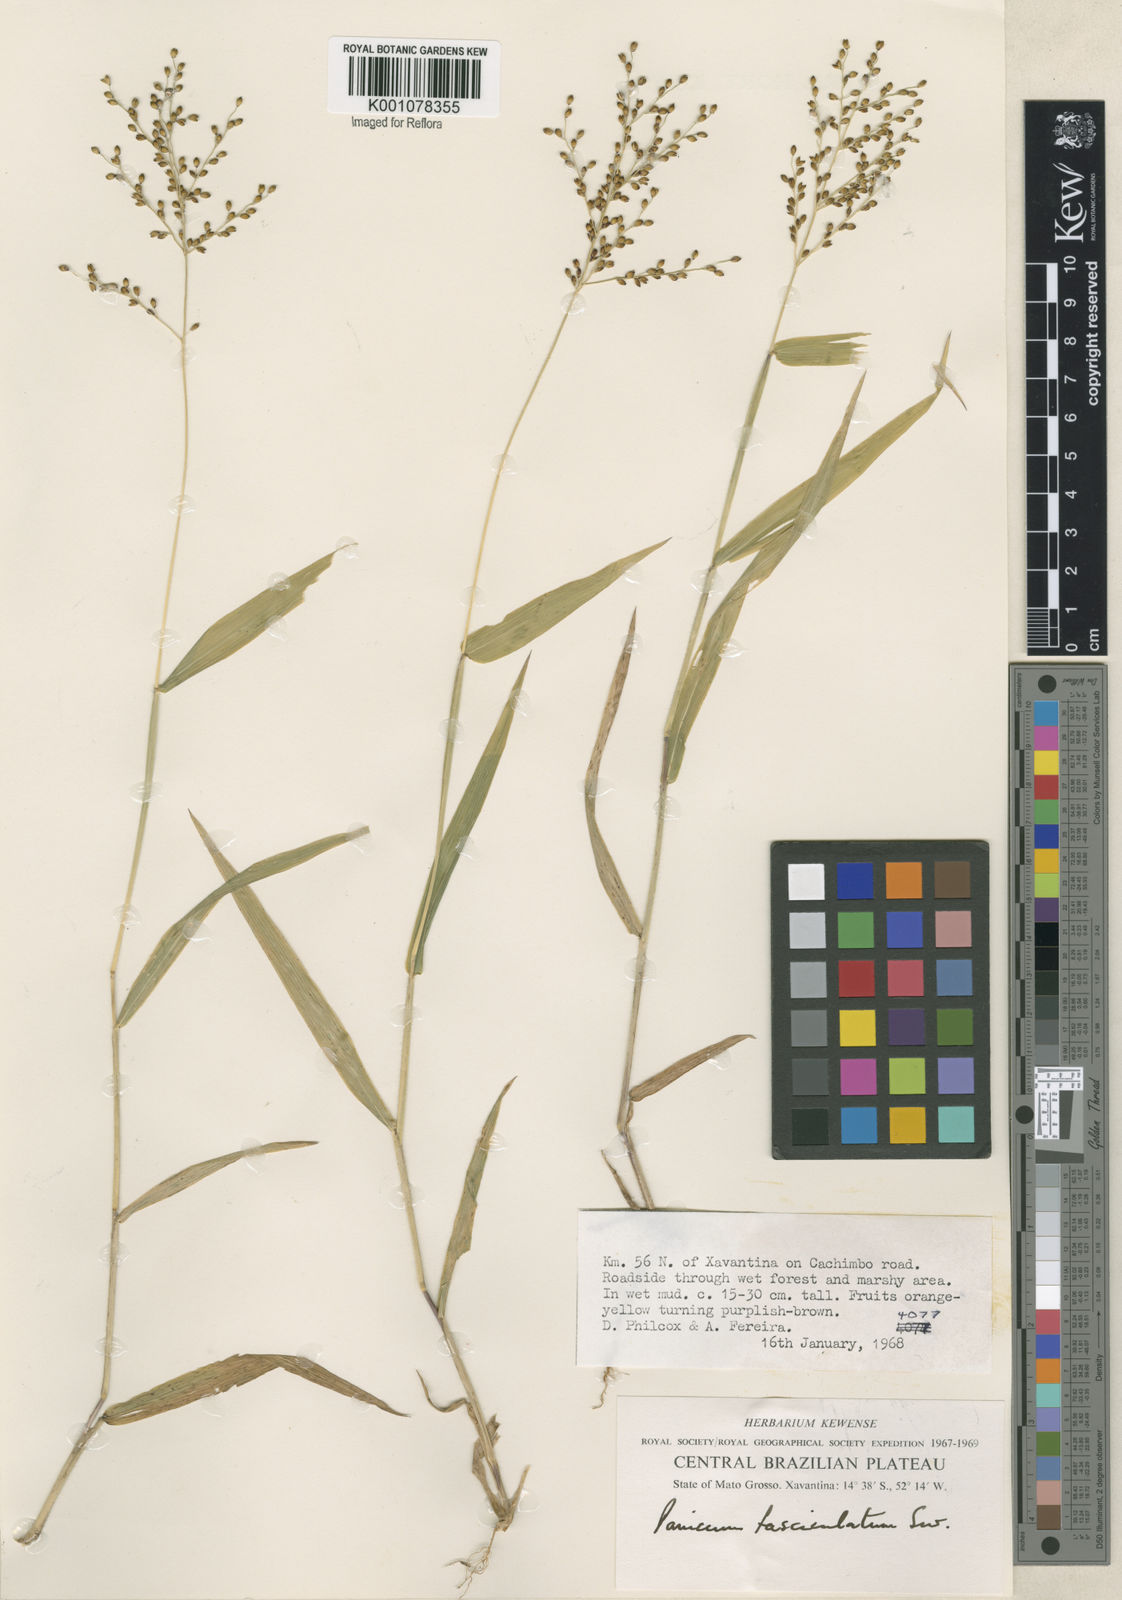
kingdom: Plantae
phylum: Tracheophyta
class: Liliopsida
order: Poales
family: Poaceae
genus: Urochloa
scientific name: Urochloa fusca
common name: Browntop signal grass
